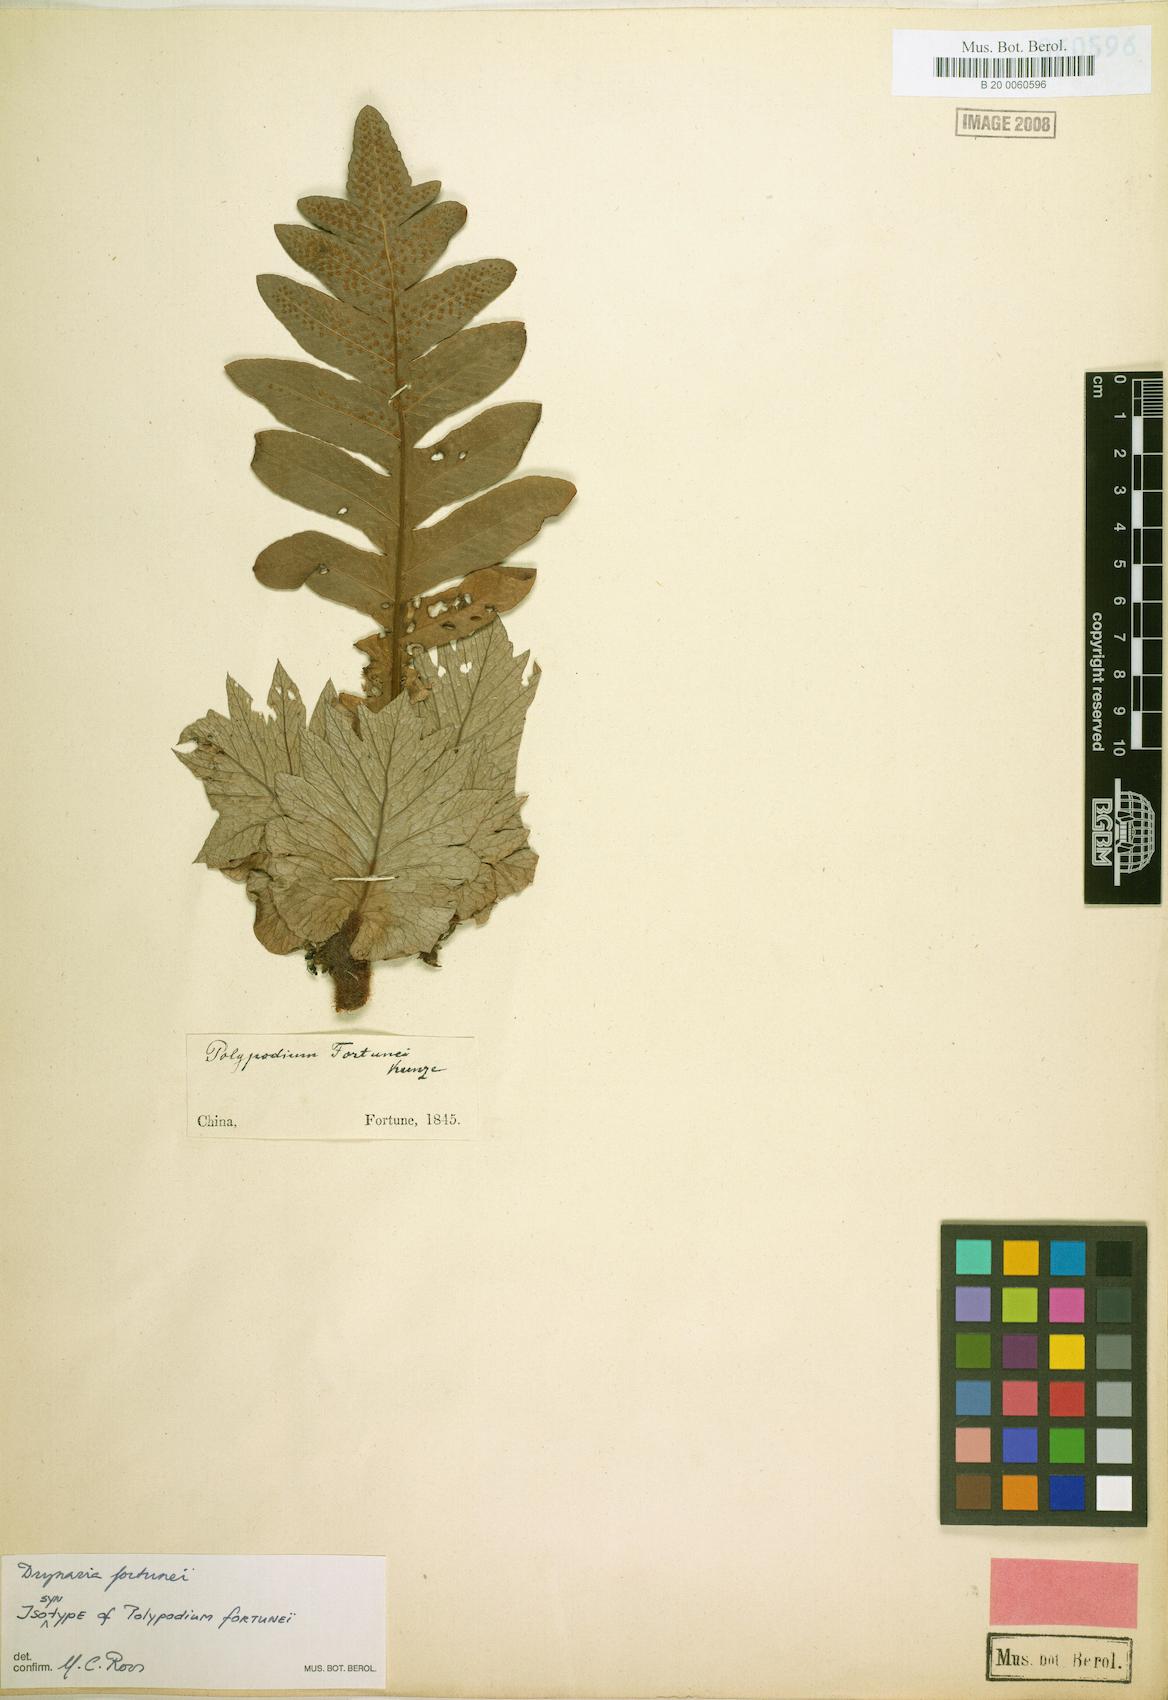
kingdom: Plantae
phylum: Tracheophyta
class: Polypodiopsida
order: Polypodiales
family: Polypodiaceae
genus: Drynaria
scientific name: Drynaria roosii
